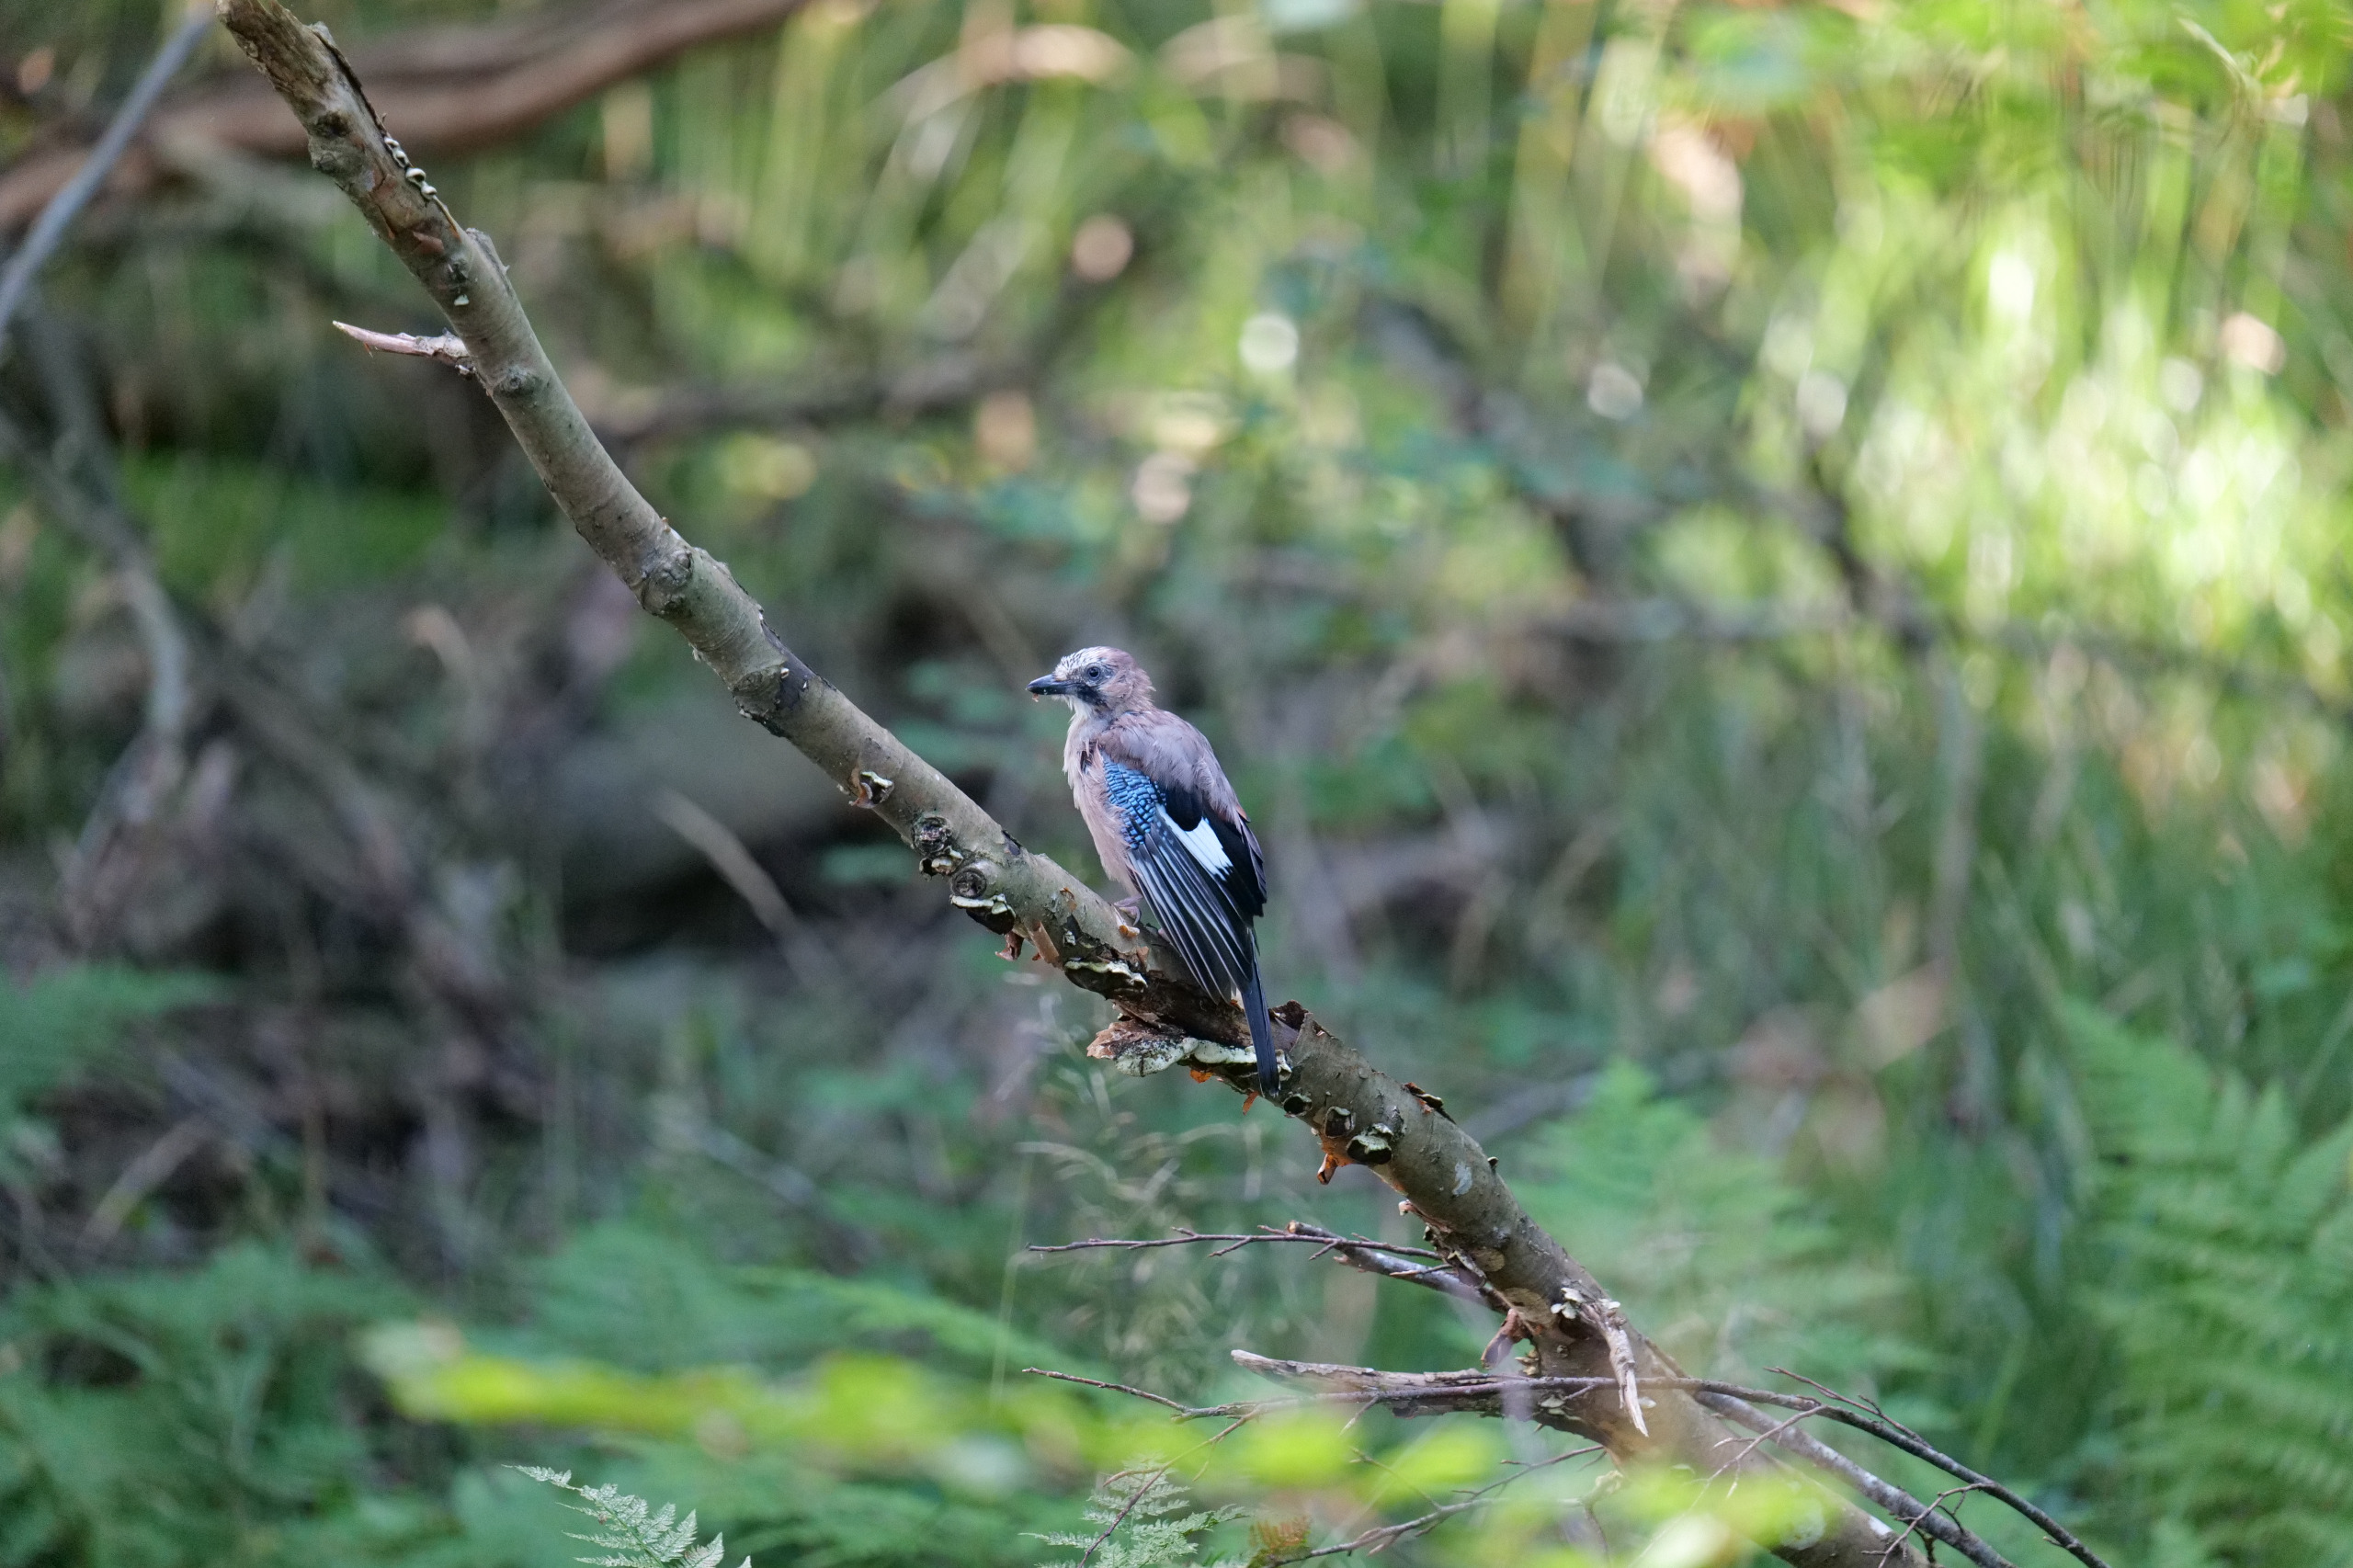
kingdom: Animalia
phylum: Chordata
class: Aves
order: Passeriformes
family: Corvidae
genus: Garrulus
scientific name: Garrulus glandarius
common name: Skovskade
